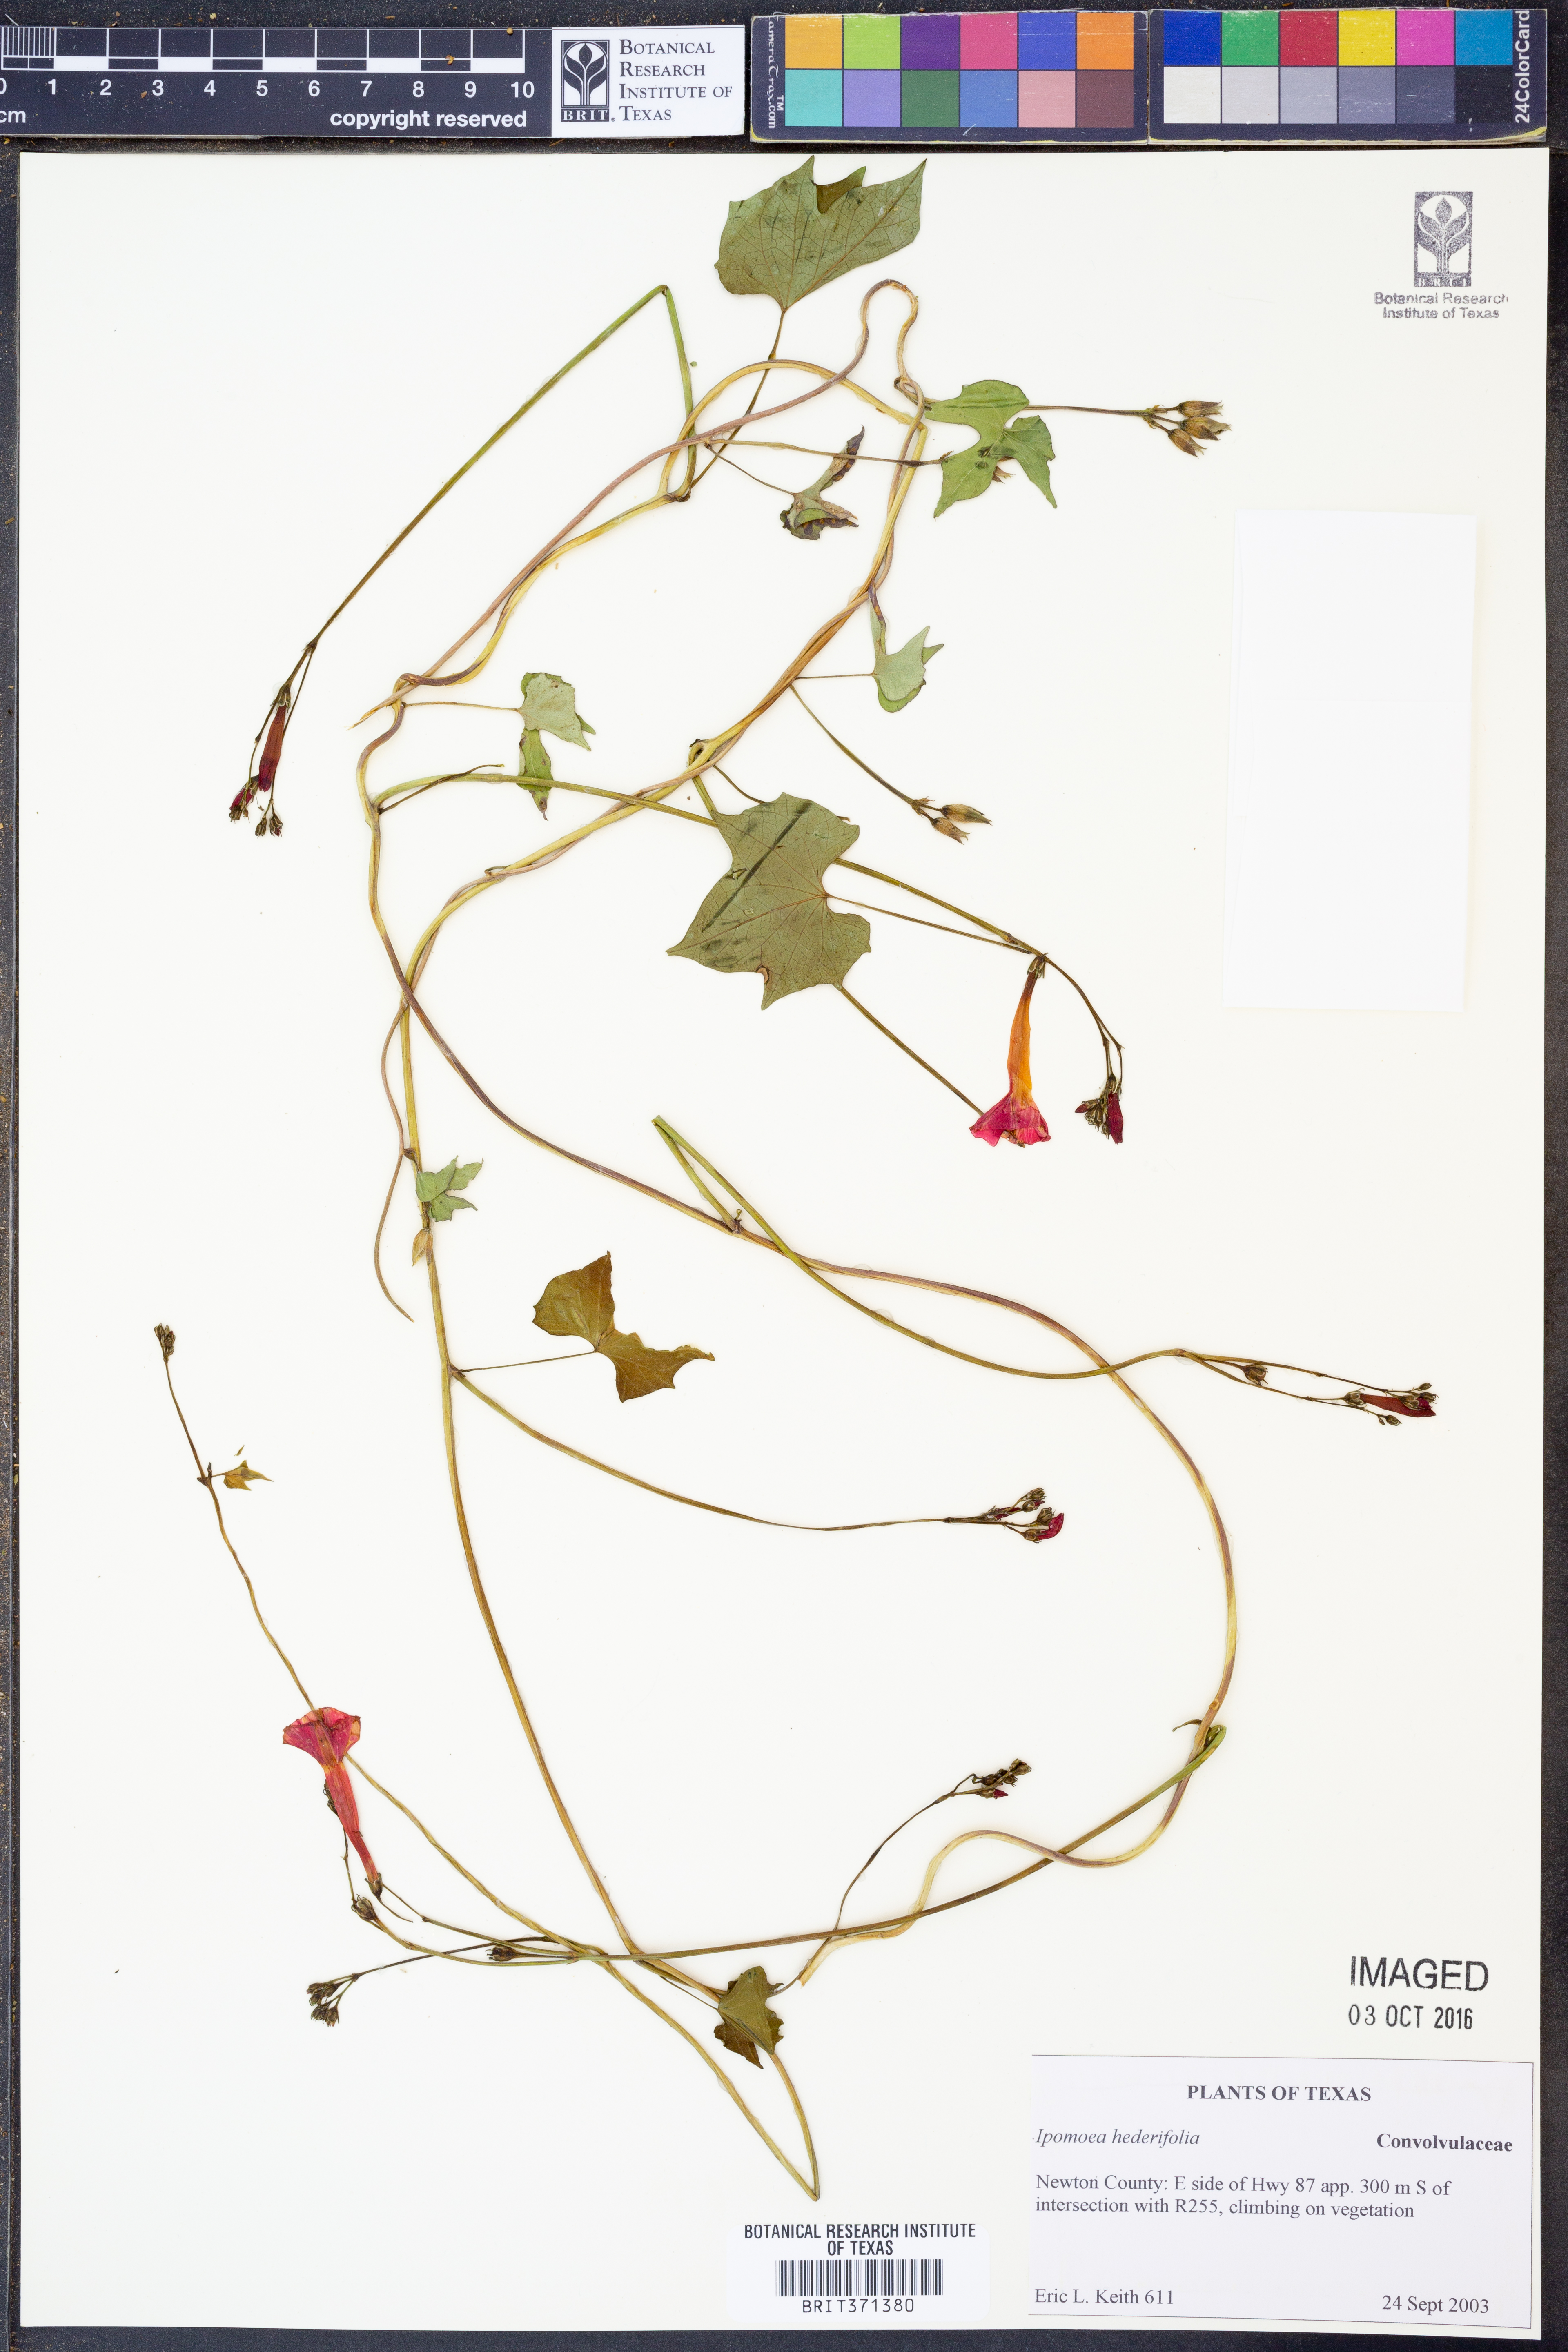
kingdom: Plantae
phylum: Tracheophyta
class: Magnoliopsida
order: Solanales
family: Convolvulaceae
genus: Ipomoea
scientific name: Ipomoea hederifolia
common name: Ivy-leaf morning-glory
